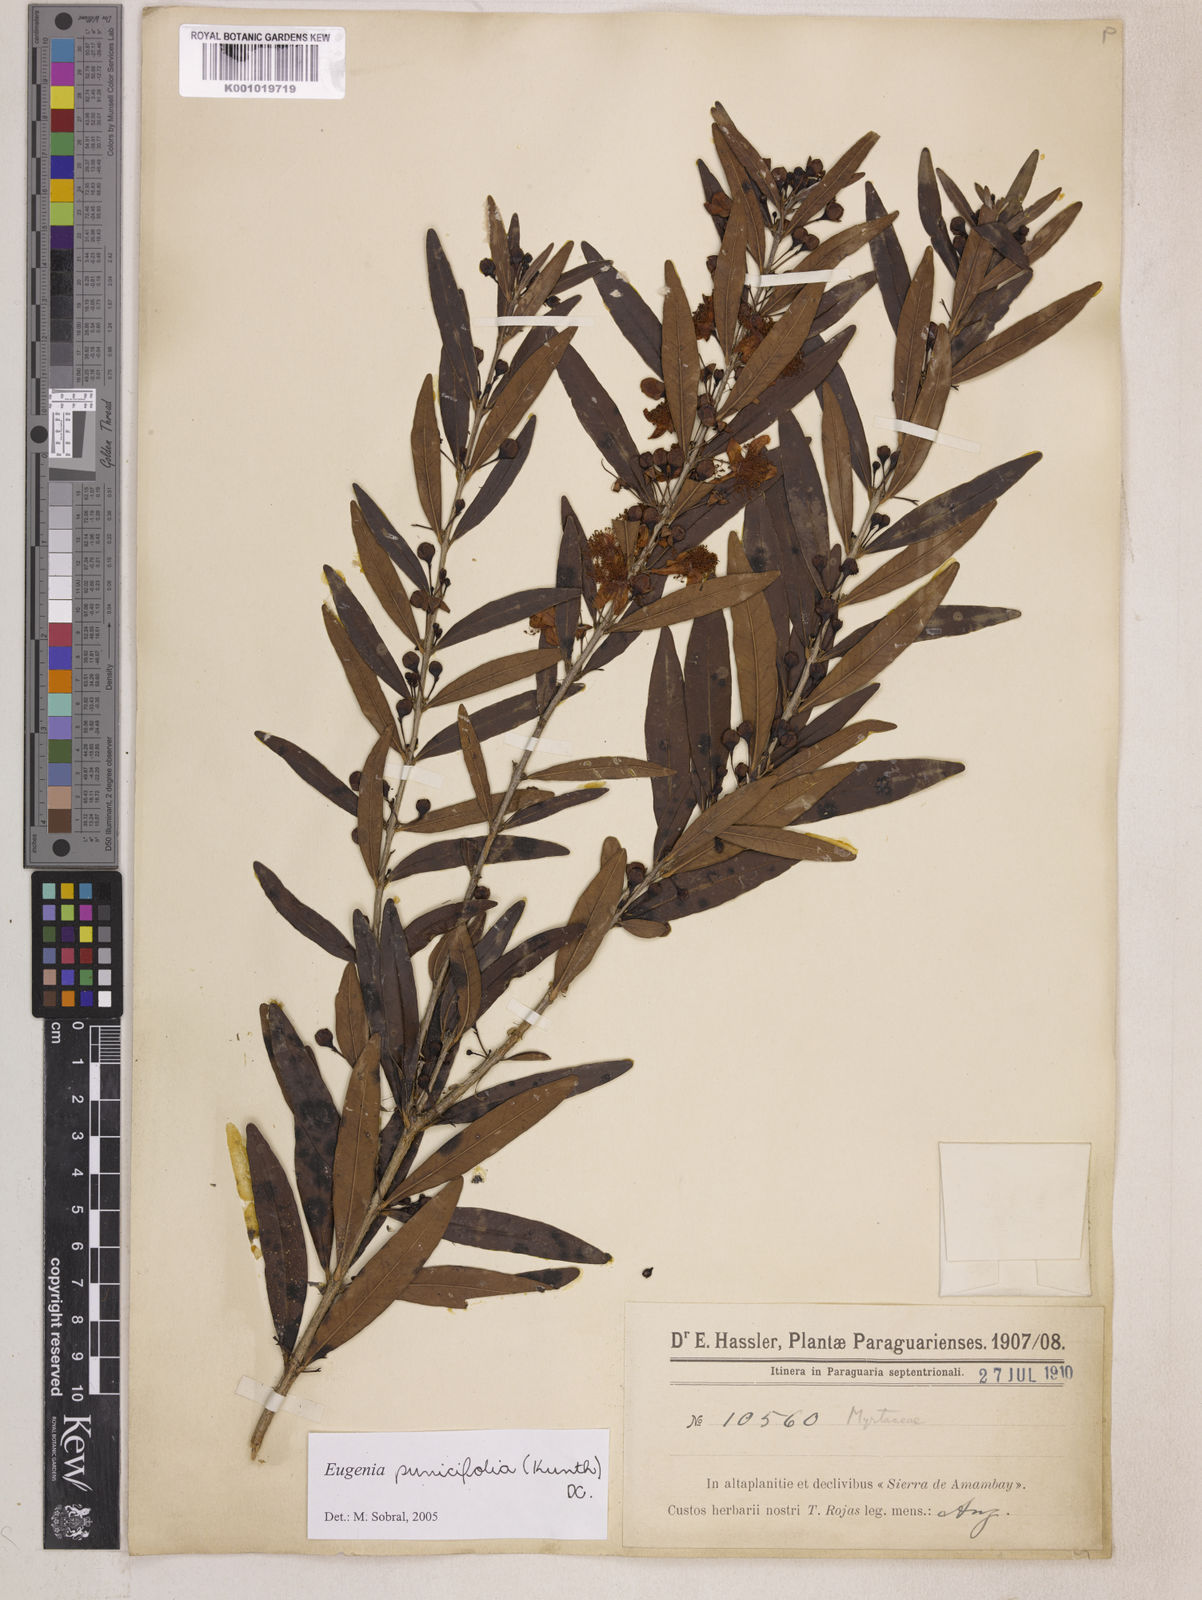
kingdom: Plantae
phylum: Tracheophyta
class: Magnoliopsida
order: Myrtales
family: Myrtaceae
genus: Eugenia
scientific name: Eugenia punicifolia
